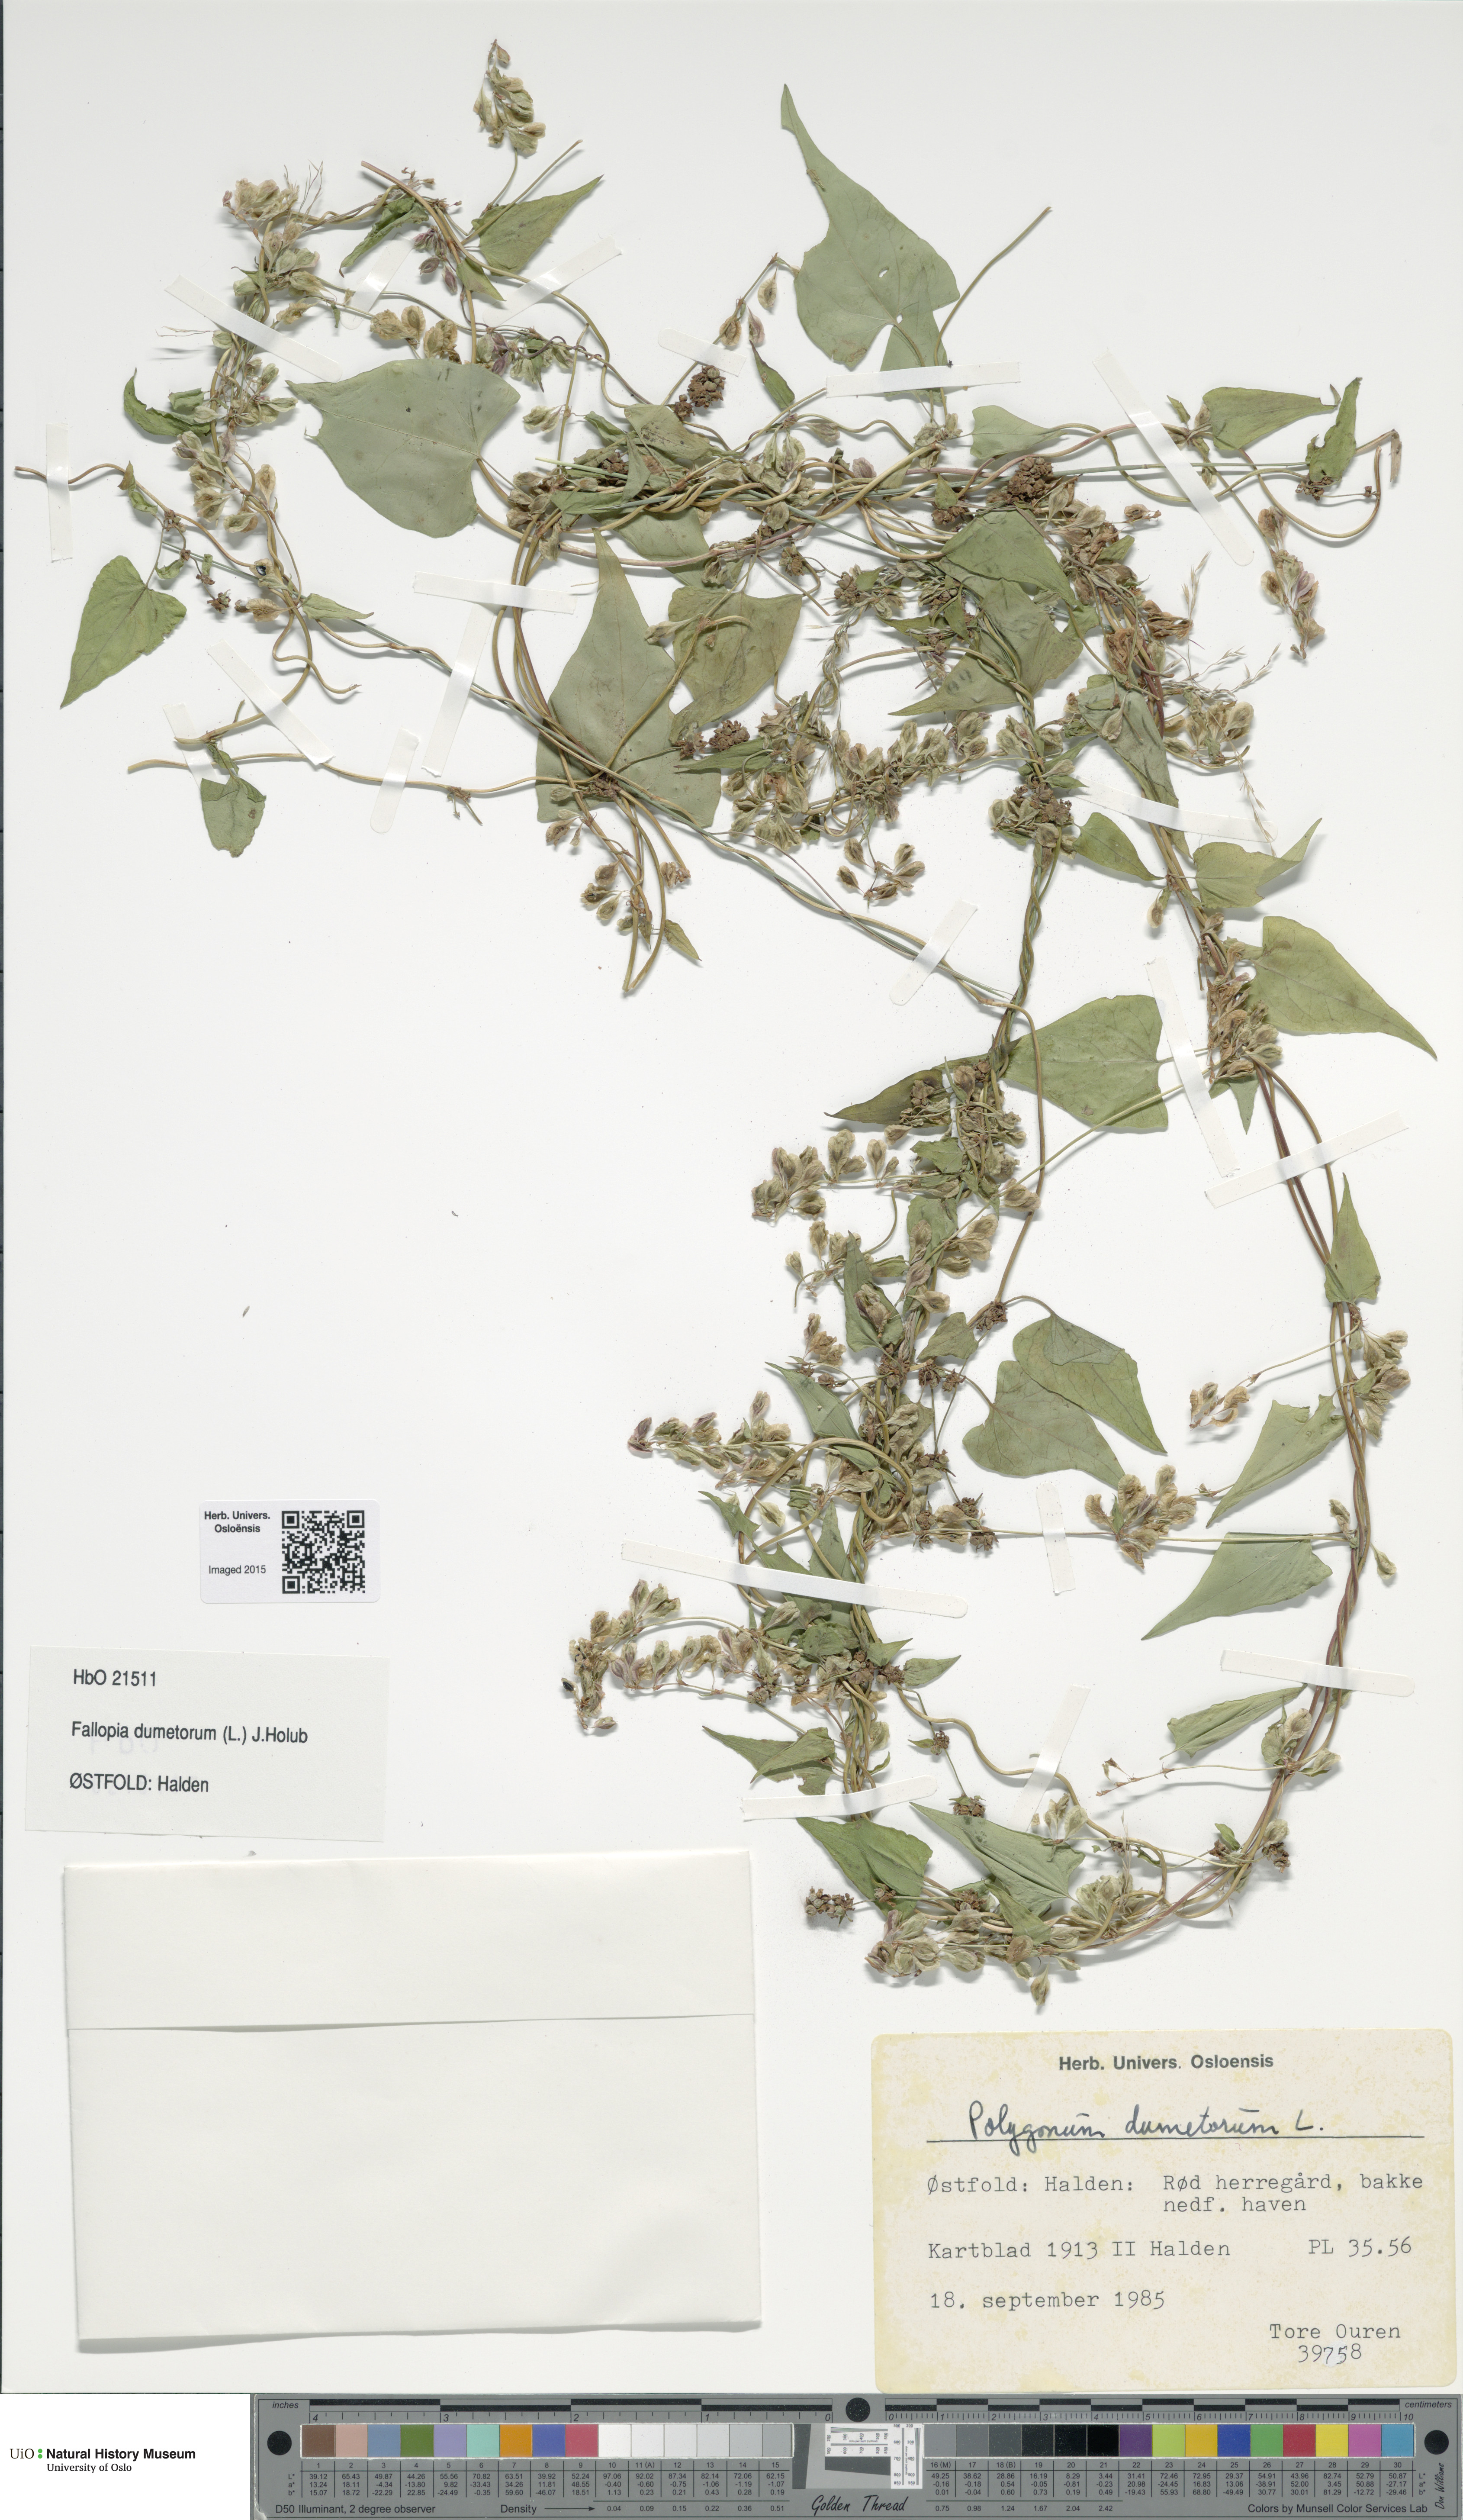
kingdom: Plantae
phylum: Tracheophyta
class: Magnoliopsida
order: Caryophyllales
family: Polygonaceae
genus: Fallopia
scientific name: Fallopia dumetorum
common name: Copse-bindweed
